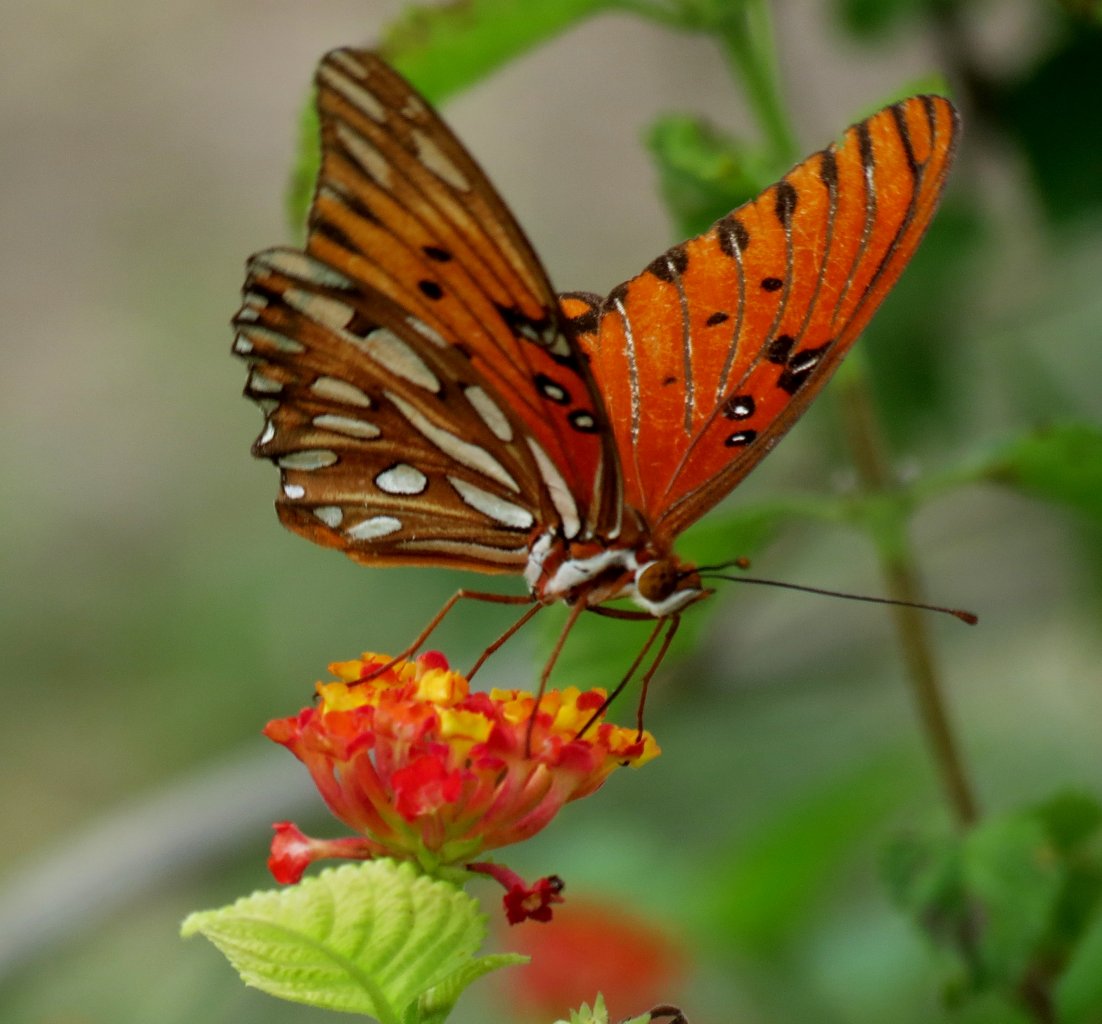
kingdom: Animalia
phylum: Arthropoda
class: Insecta
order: Lepidoptera
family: Nymphalidae
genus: Dione
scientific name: Dione vanillae
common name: Gulf Fritillary
